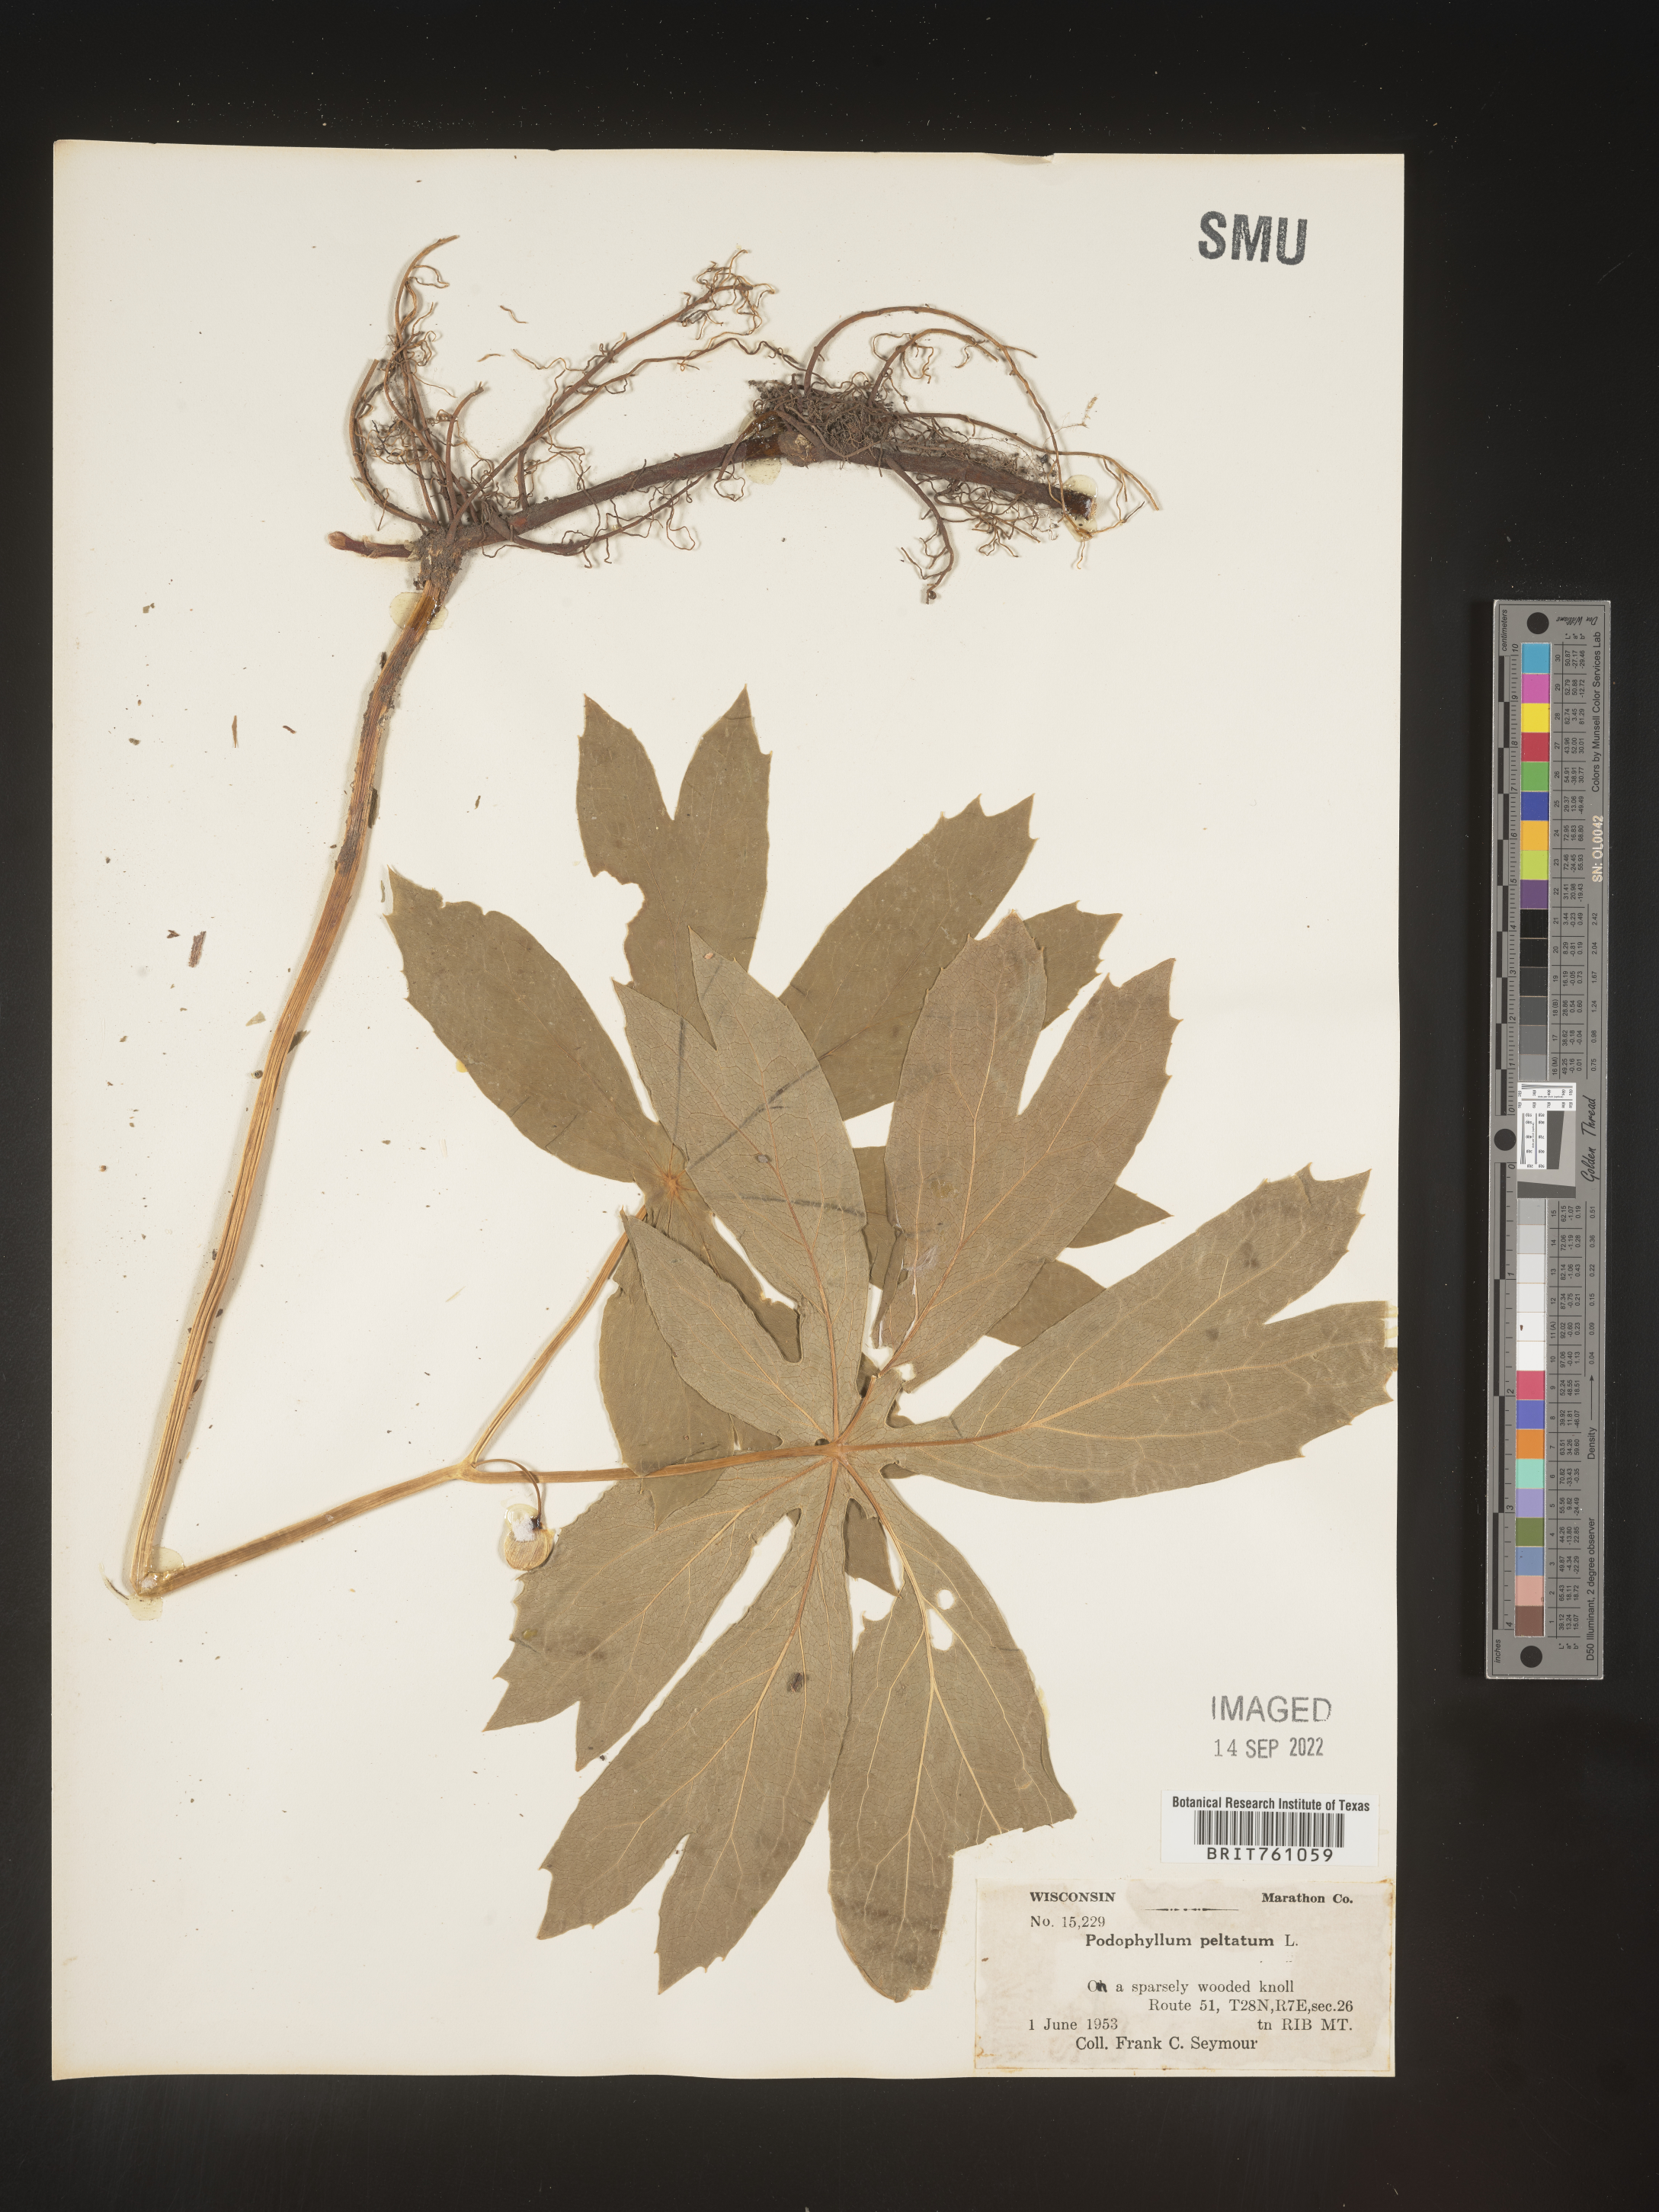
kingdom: Plantae
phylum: Tracheophyta
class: Magnoliopsida
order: Ranunculales
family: Berberidaceae
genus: Podophyllum
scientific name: Podophyllum peltatum
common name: Wild mandrake
